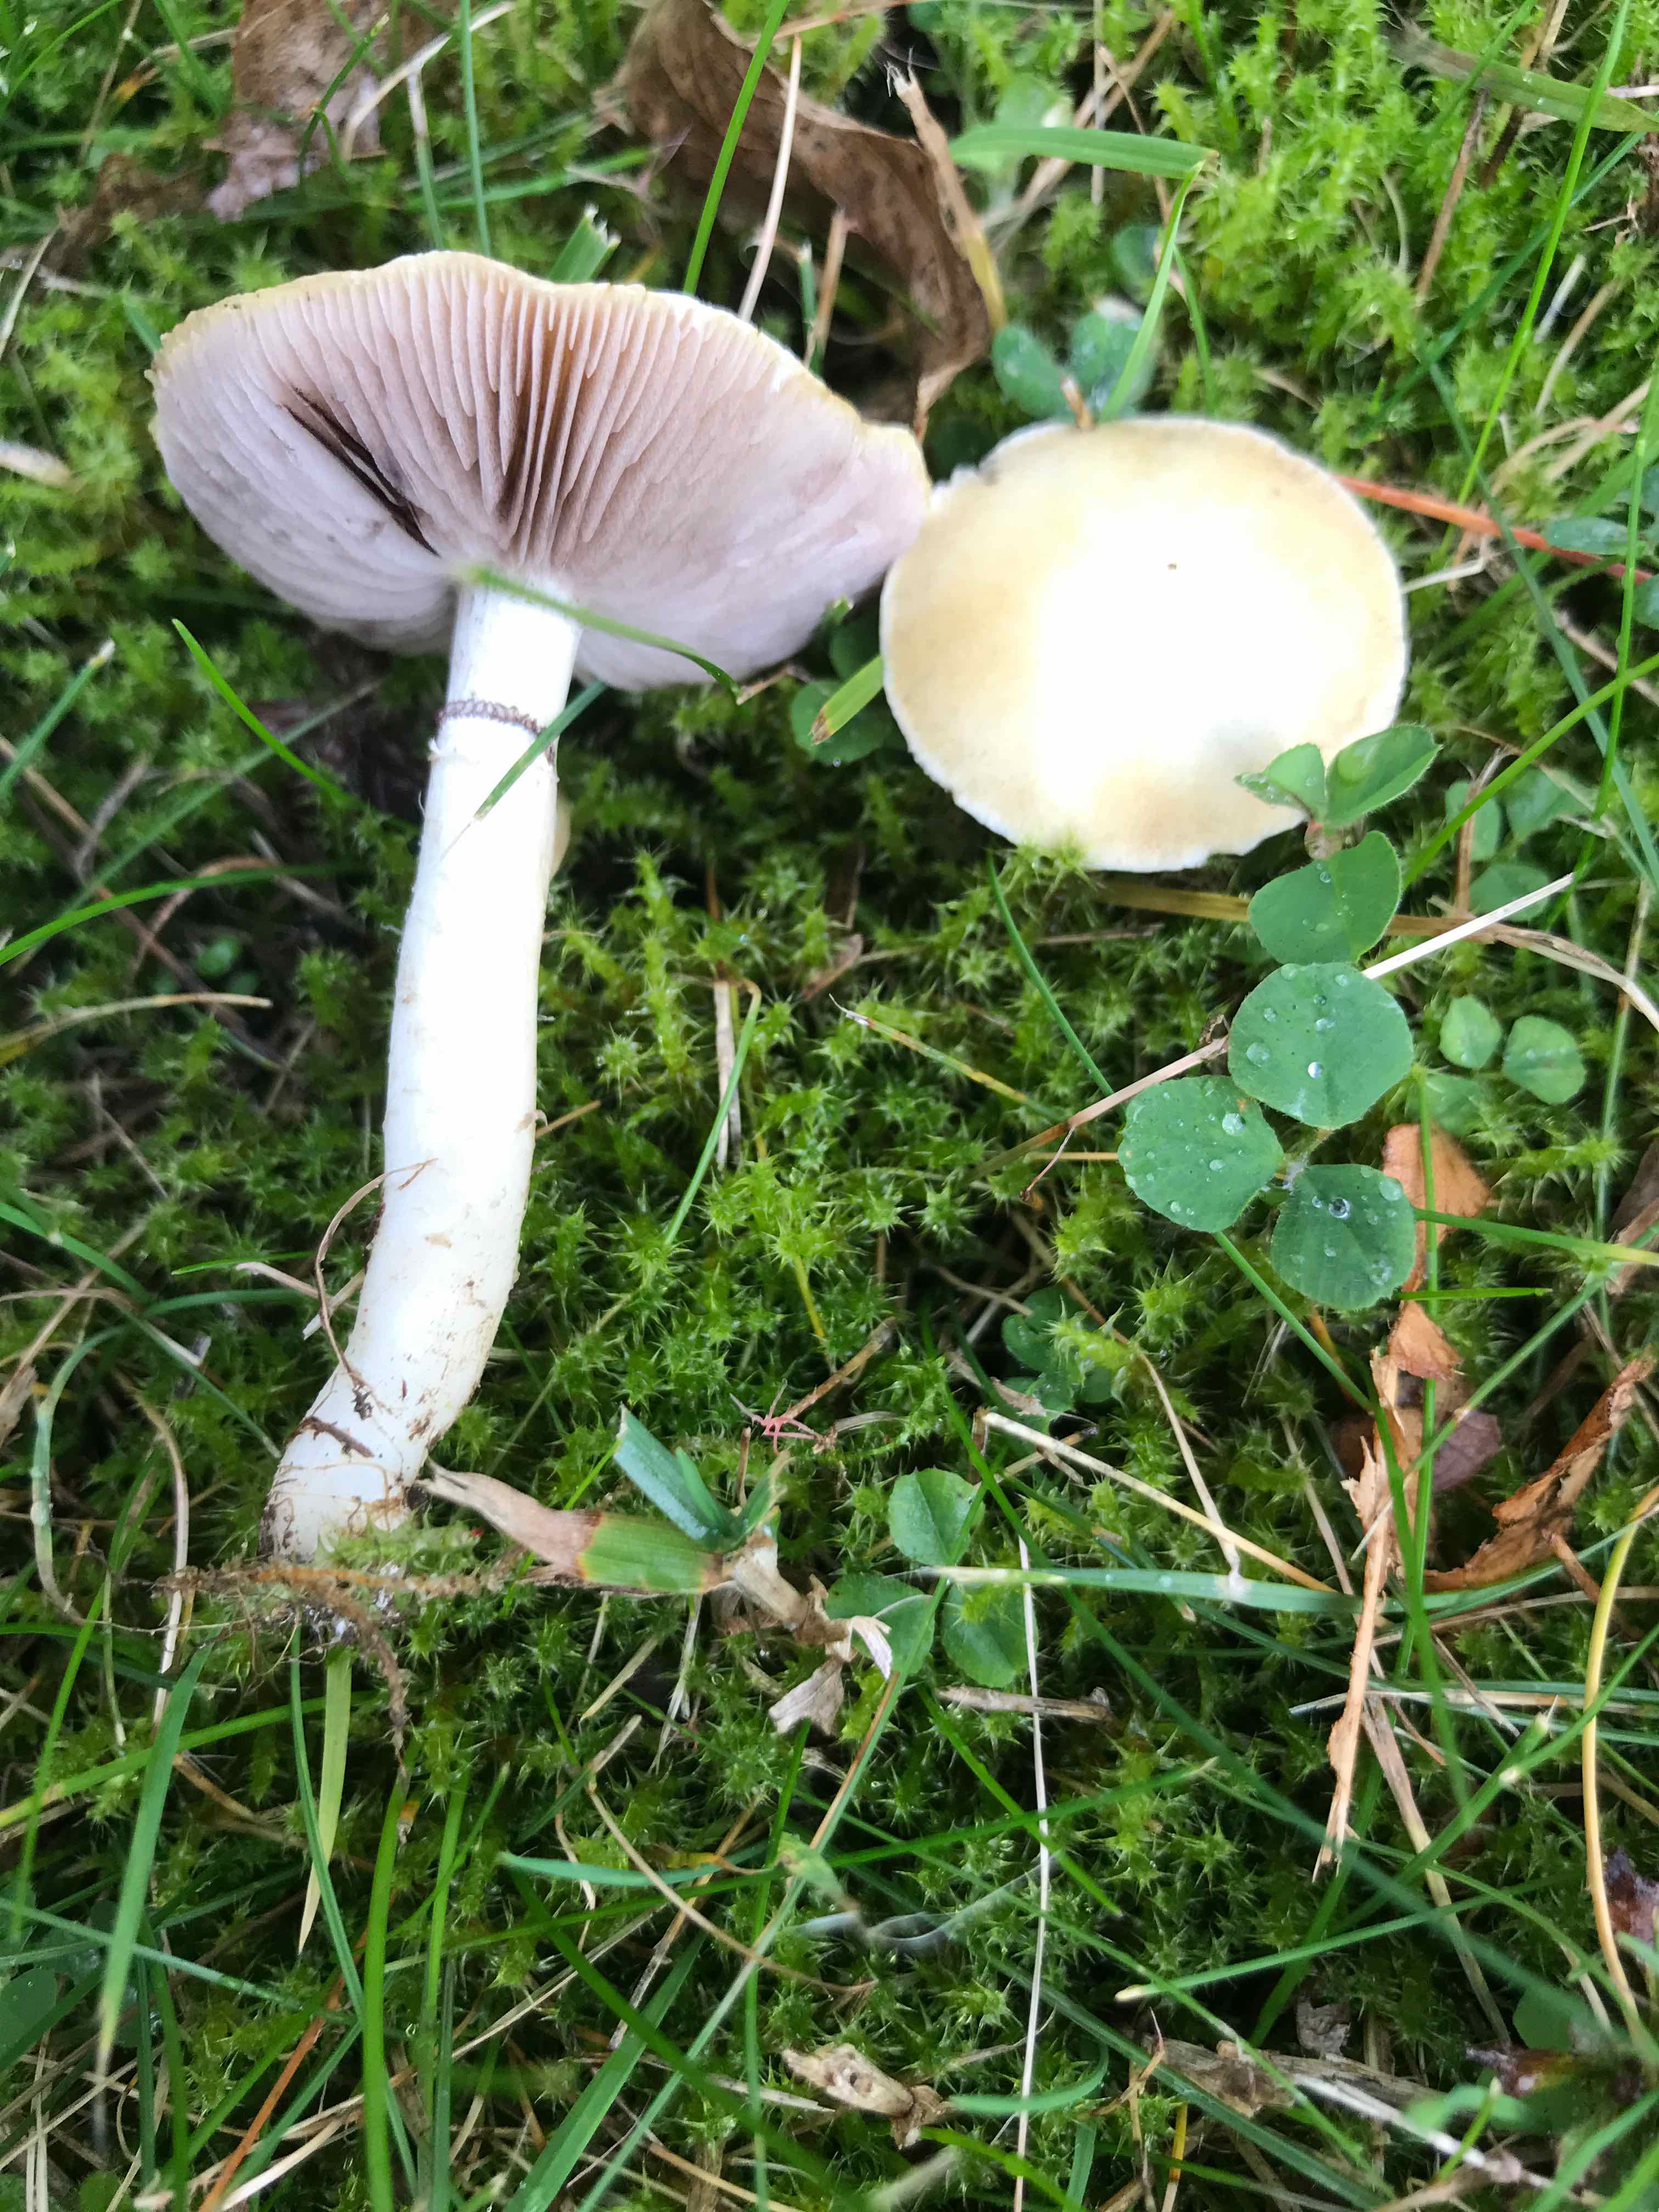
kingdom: Fungi
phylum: Basidiomycota
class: Agaricomycetes
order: Agaricales
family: Hymenogastraceae
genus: Psilocybe
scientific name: Psilocybe coronilla
